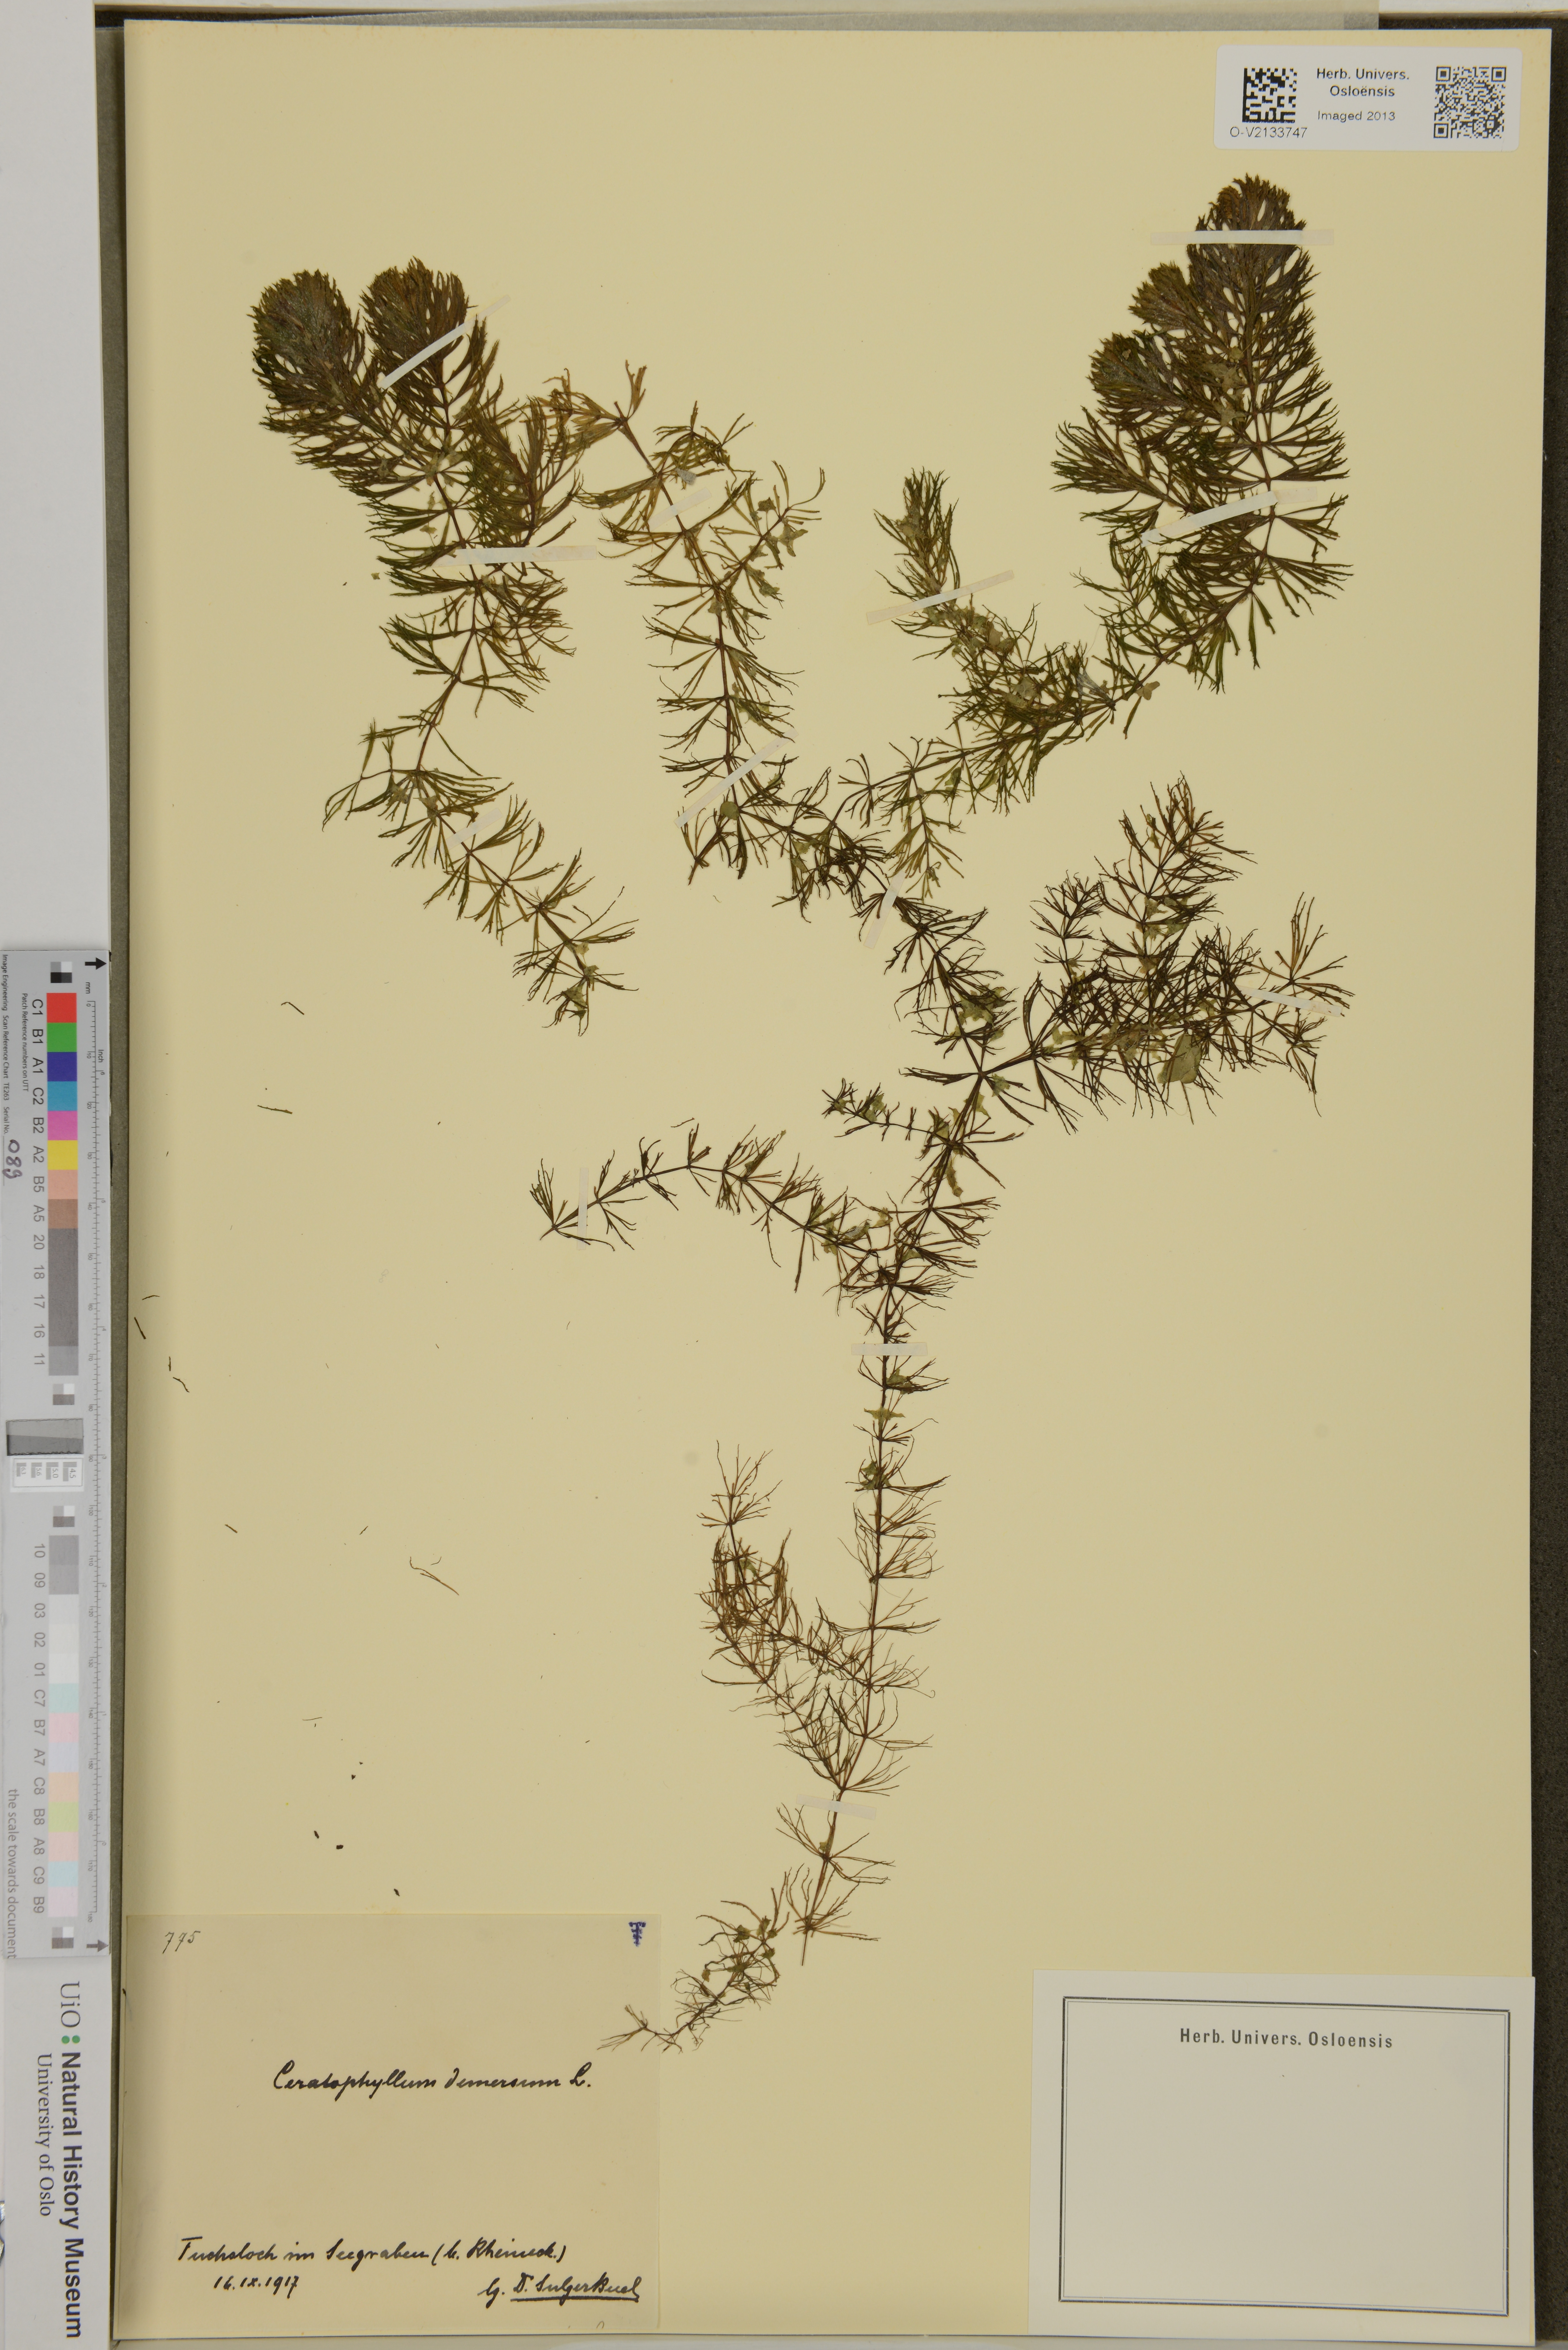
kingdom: Plantae
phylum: Tracheophyta
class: Magnoliopsida
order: Ceratophyllales
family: Ceratophyllaceae
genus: Ceratophyllum
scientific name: Ceratophyllum demersum
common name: Rigid hornwort
